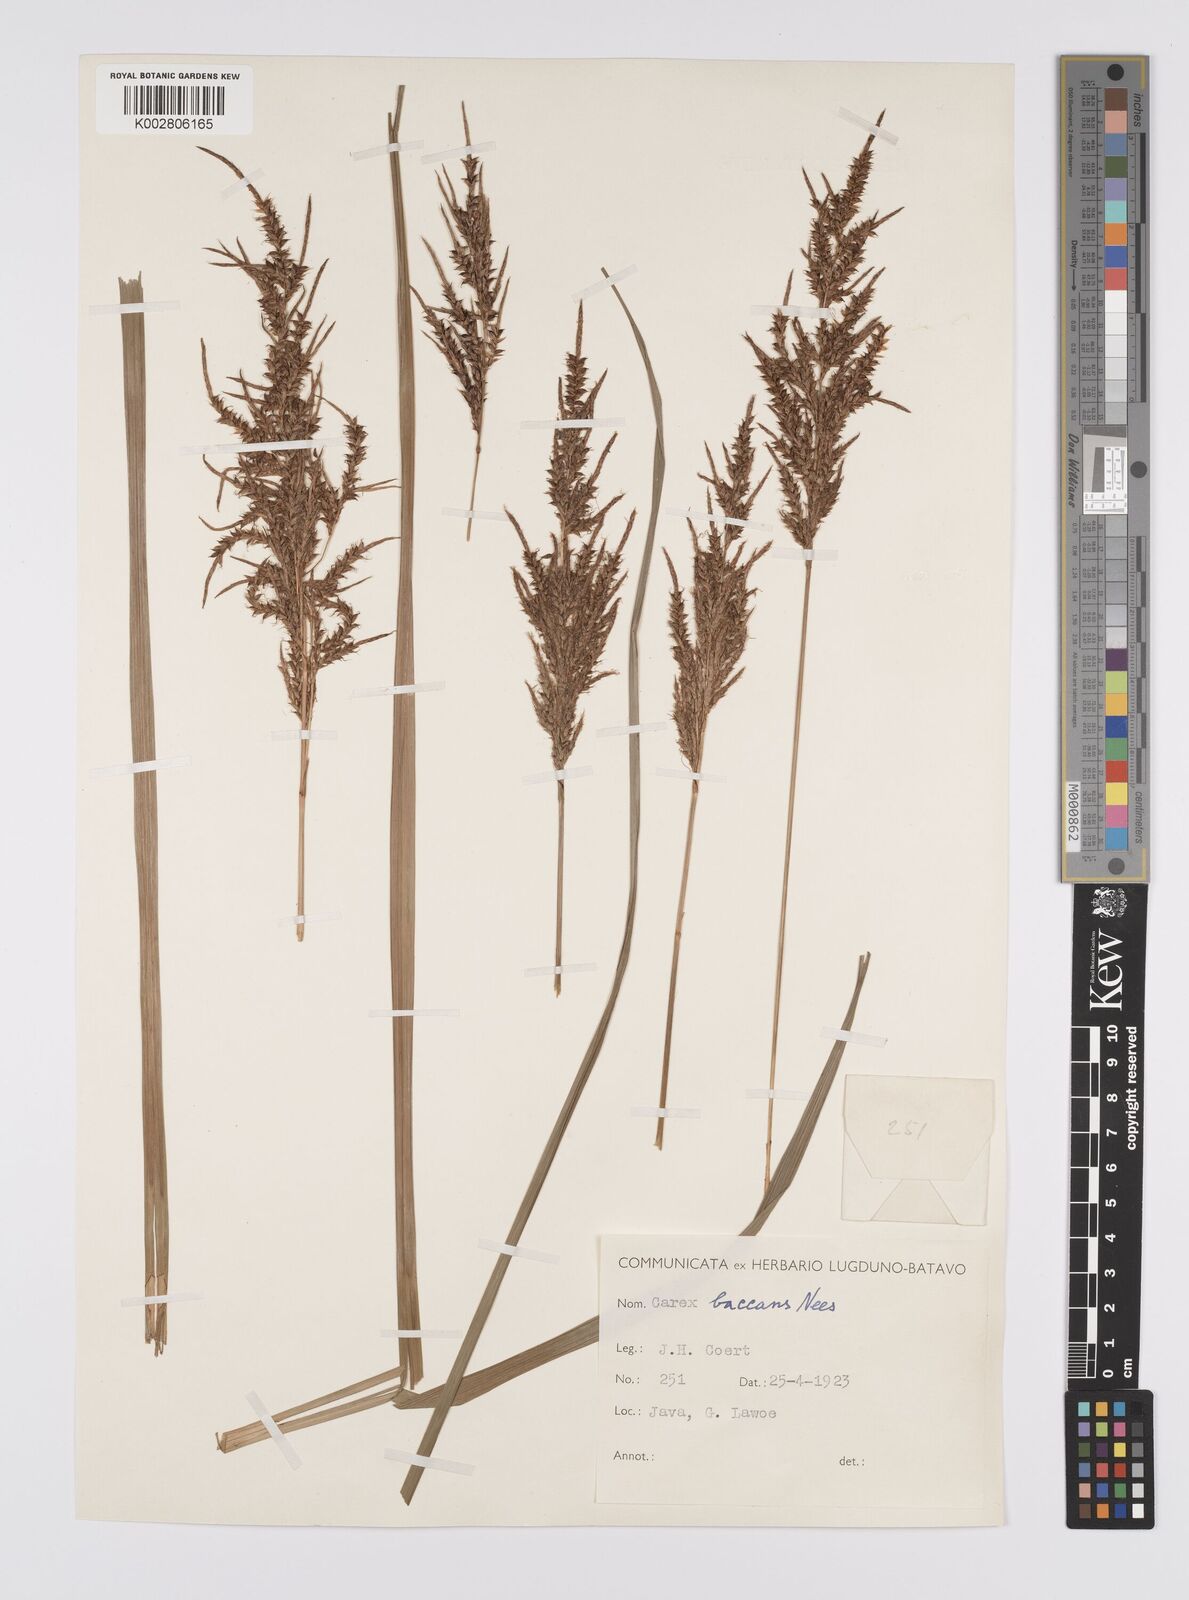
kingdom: Plantae
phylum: Tracheophyta
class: Liliopsida
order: Poales
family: Cyperaceae
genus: Carex
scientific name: Carex baccans
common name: Crimson seeded sedge
